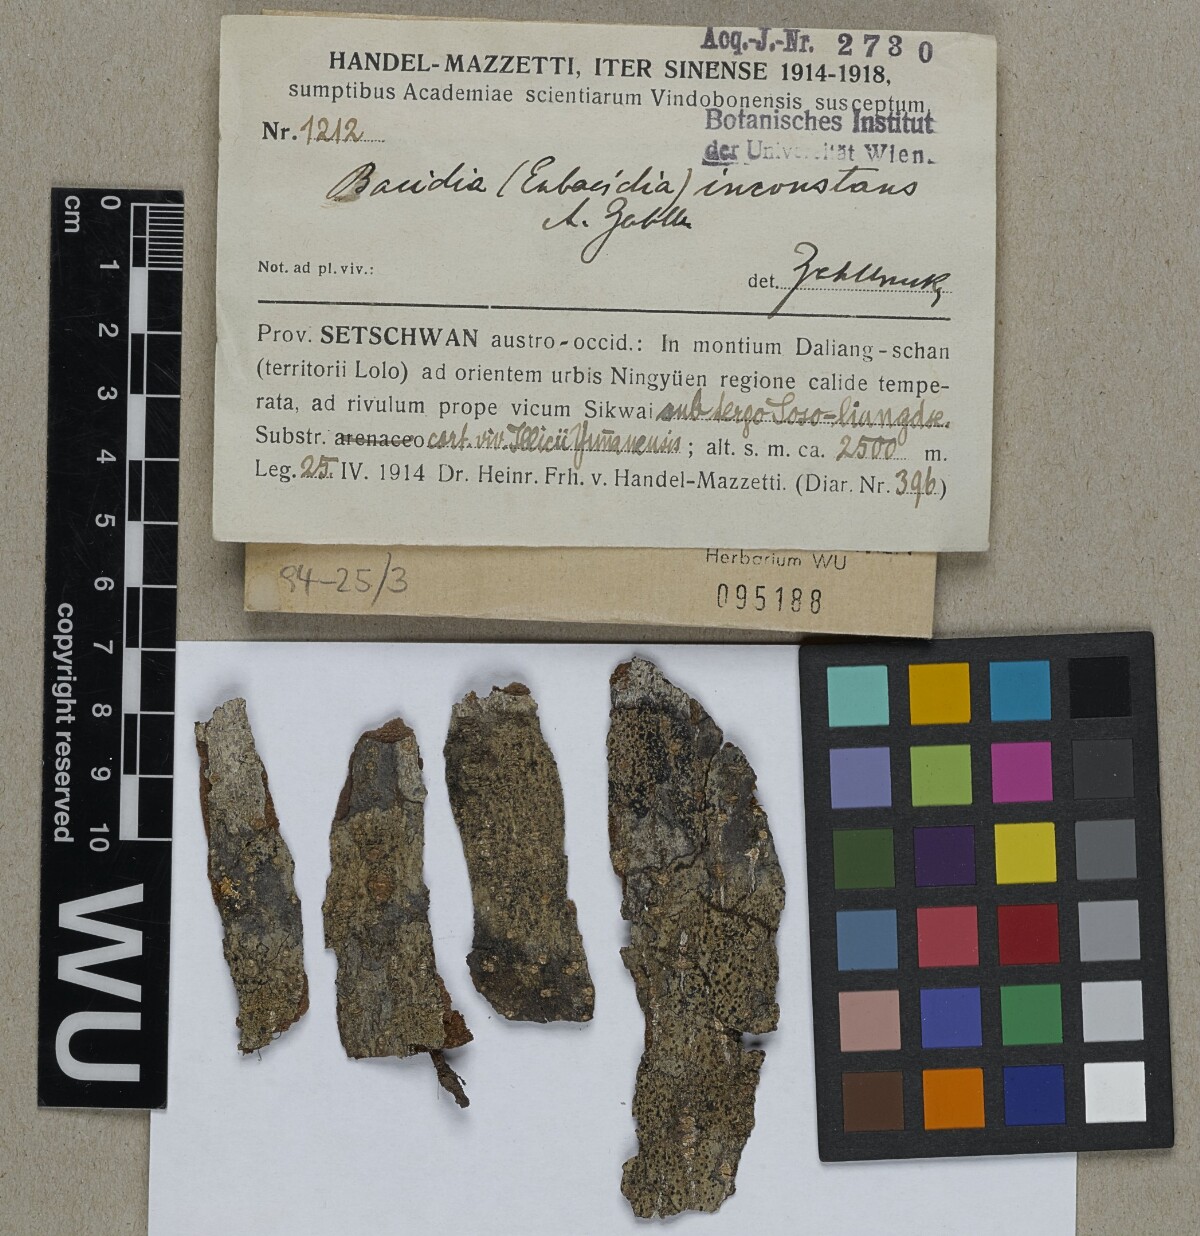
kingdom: Fungi
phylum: Ascomycota
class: Lecanoromycetes
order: Lecanorales
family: Ramalinaceae
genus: Bacidia
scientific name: Bacidia
